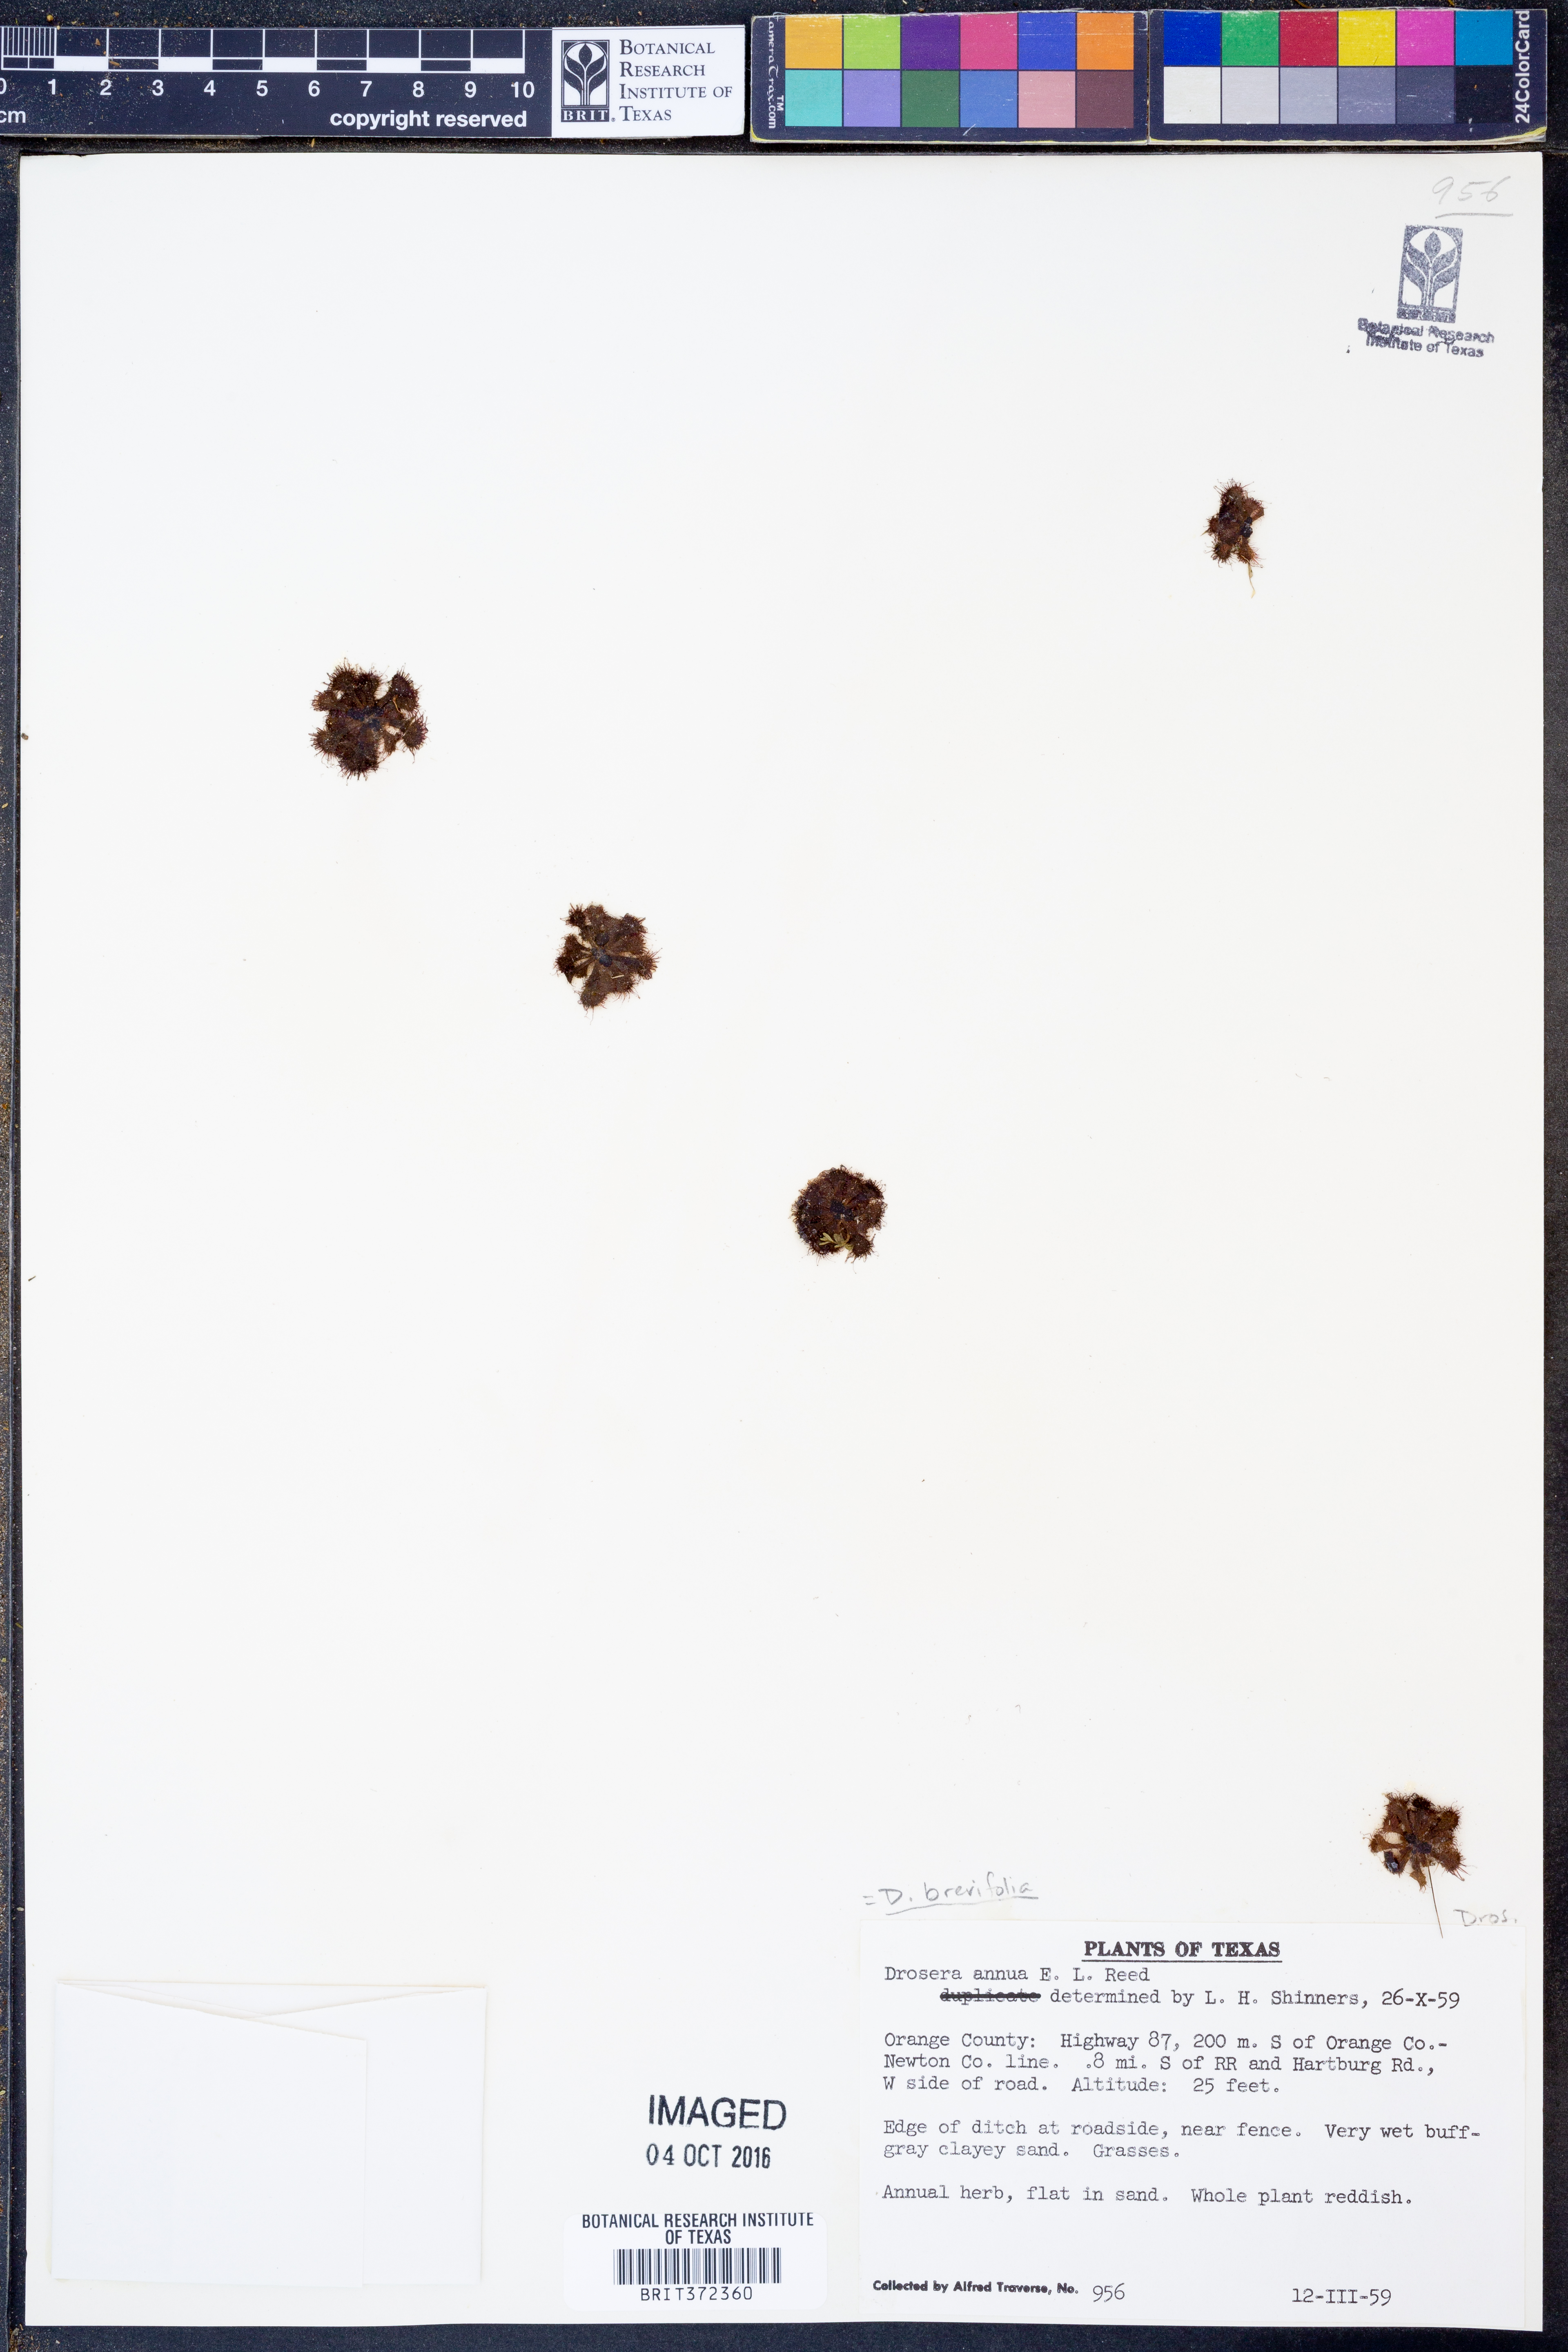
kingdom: Plantae
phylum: Tracheophyta
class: Magnoliopsida
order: Caryophyllales
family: Droseraceae
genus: Drosera
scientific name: Drosera brevifolia
